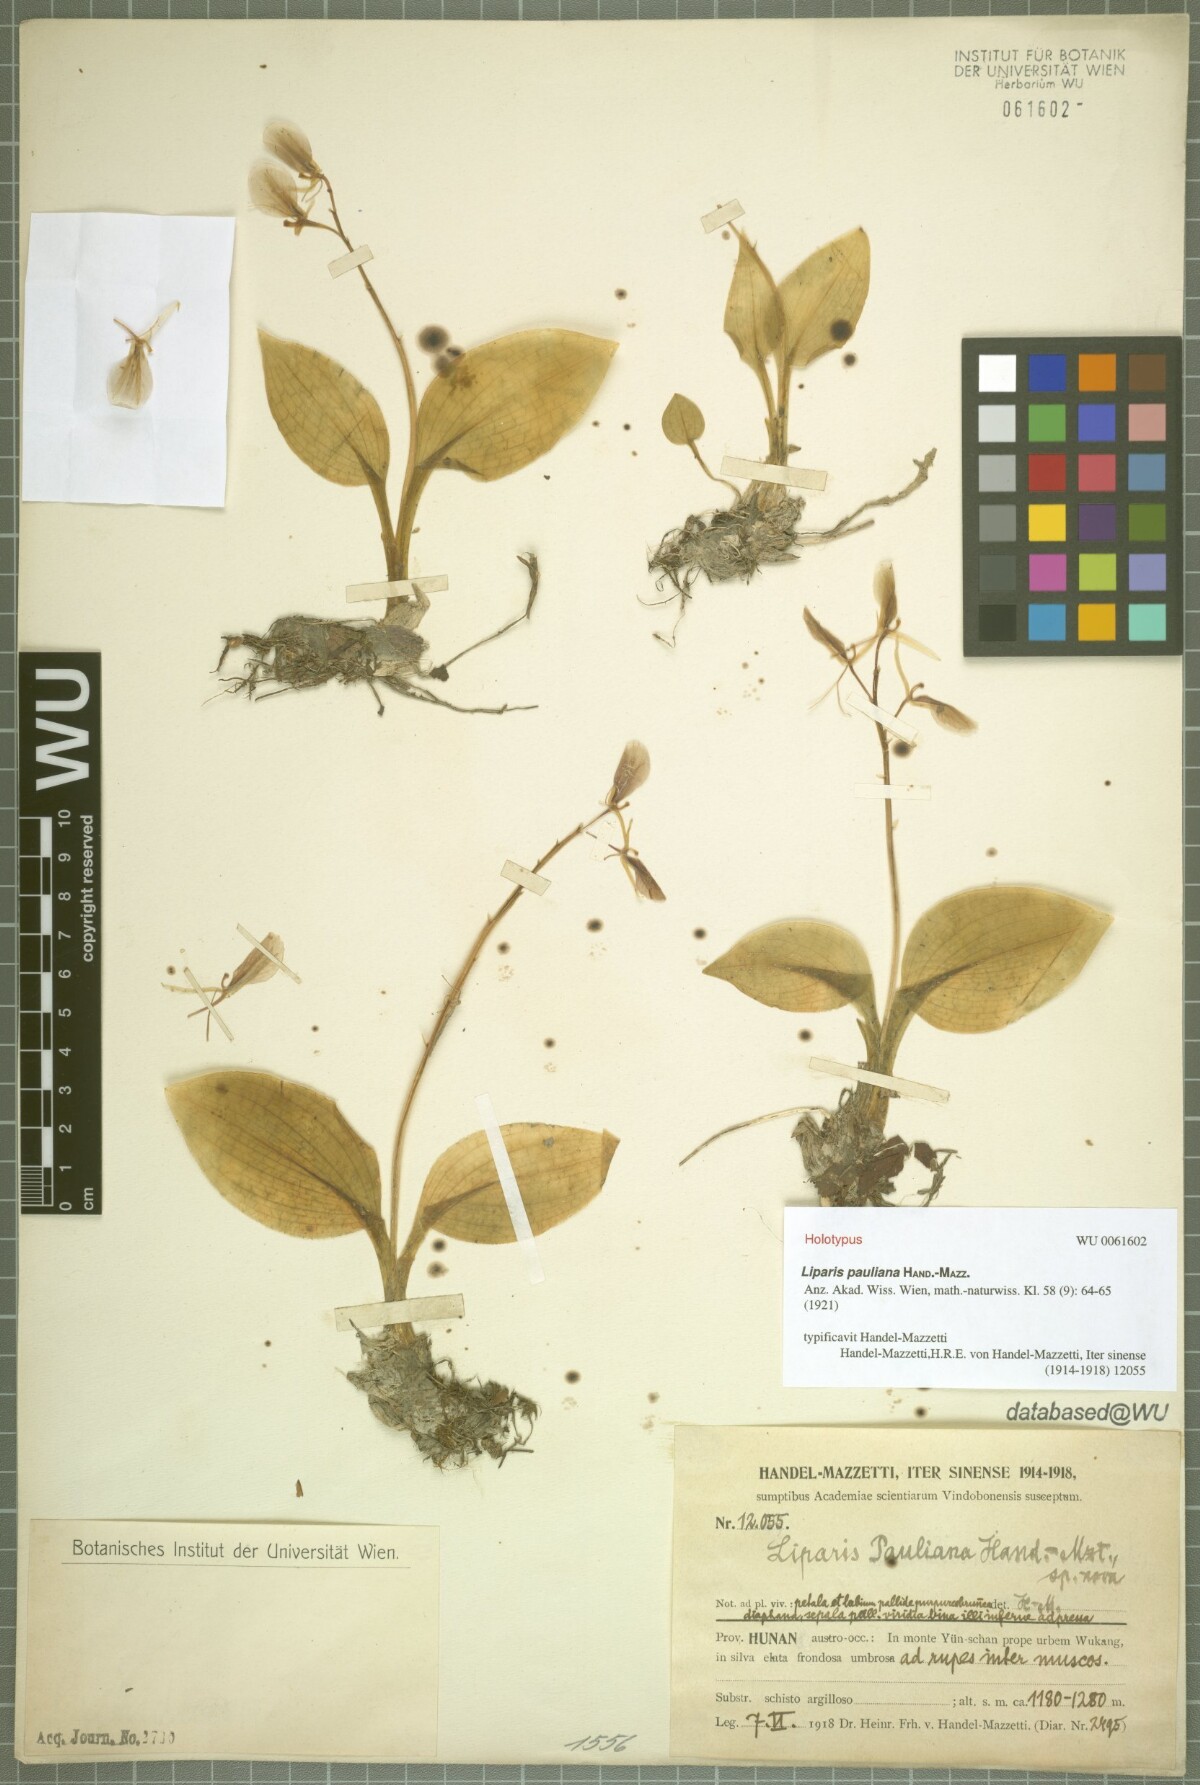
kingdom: Plantae
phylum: Tracheophyta
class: Liliopsida
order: Asparagales
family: Orchidaceae
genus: Liparis
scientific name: Liparis pauliana
